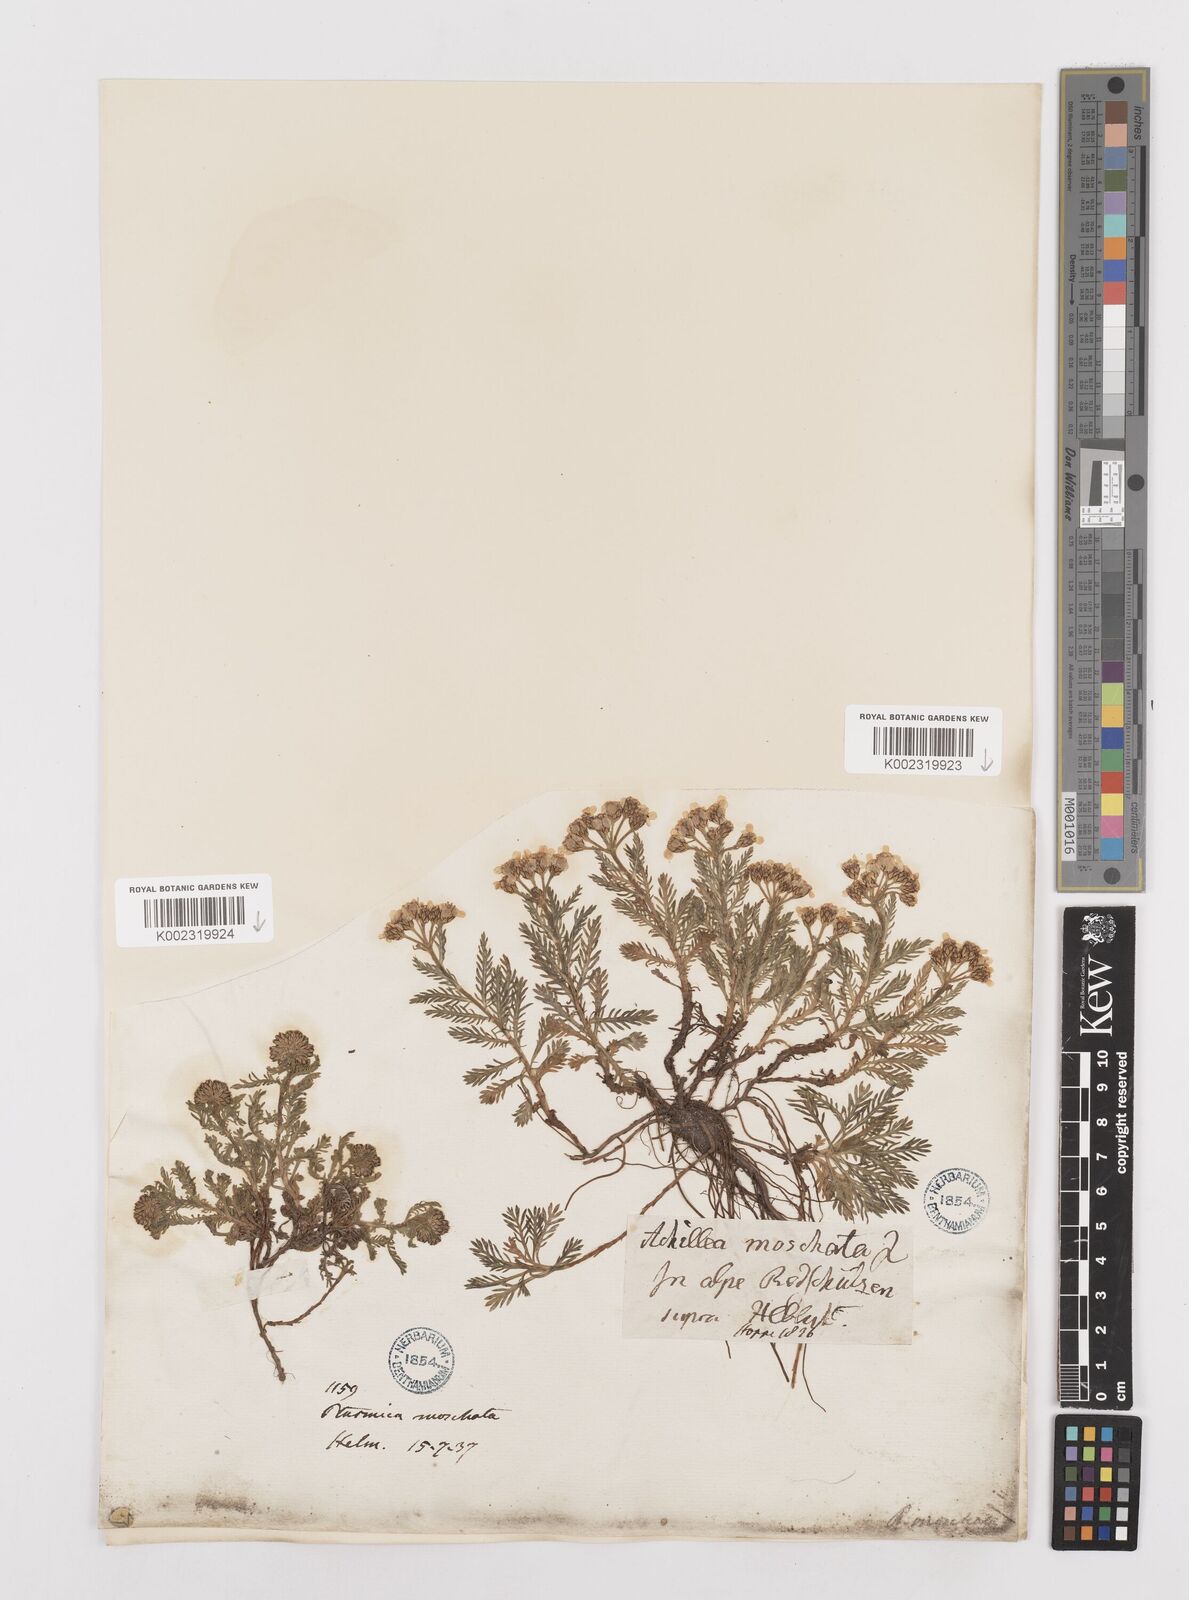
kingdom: Plantae
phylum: Tracheophyta
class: Magnoliopsida
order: Asterales
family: Asteraceae
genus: Achillea
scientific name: Achillea erba-rotta
